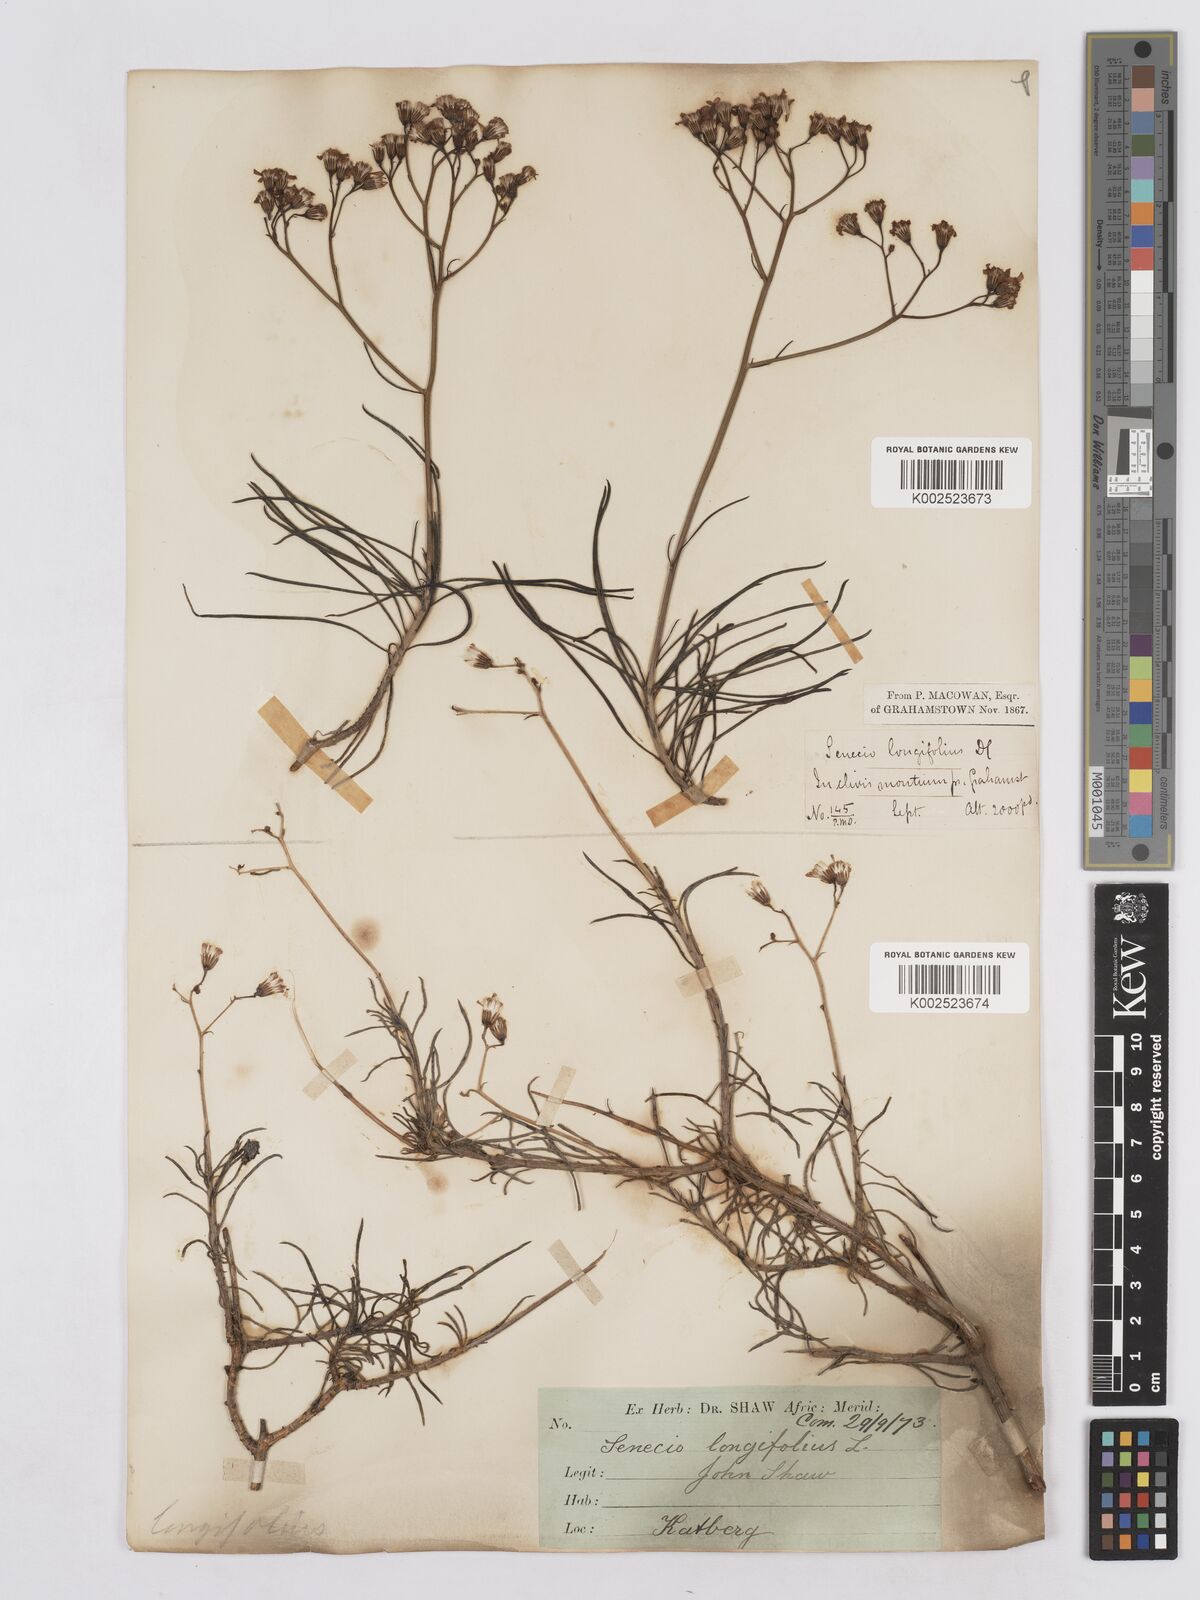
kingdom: Plantae
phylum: Tracheophyta
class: Magnoliopsida
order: Asterales
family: Asteraceae
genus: Senecio
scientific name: Senecio linifolius
